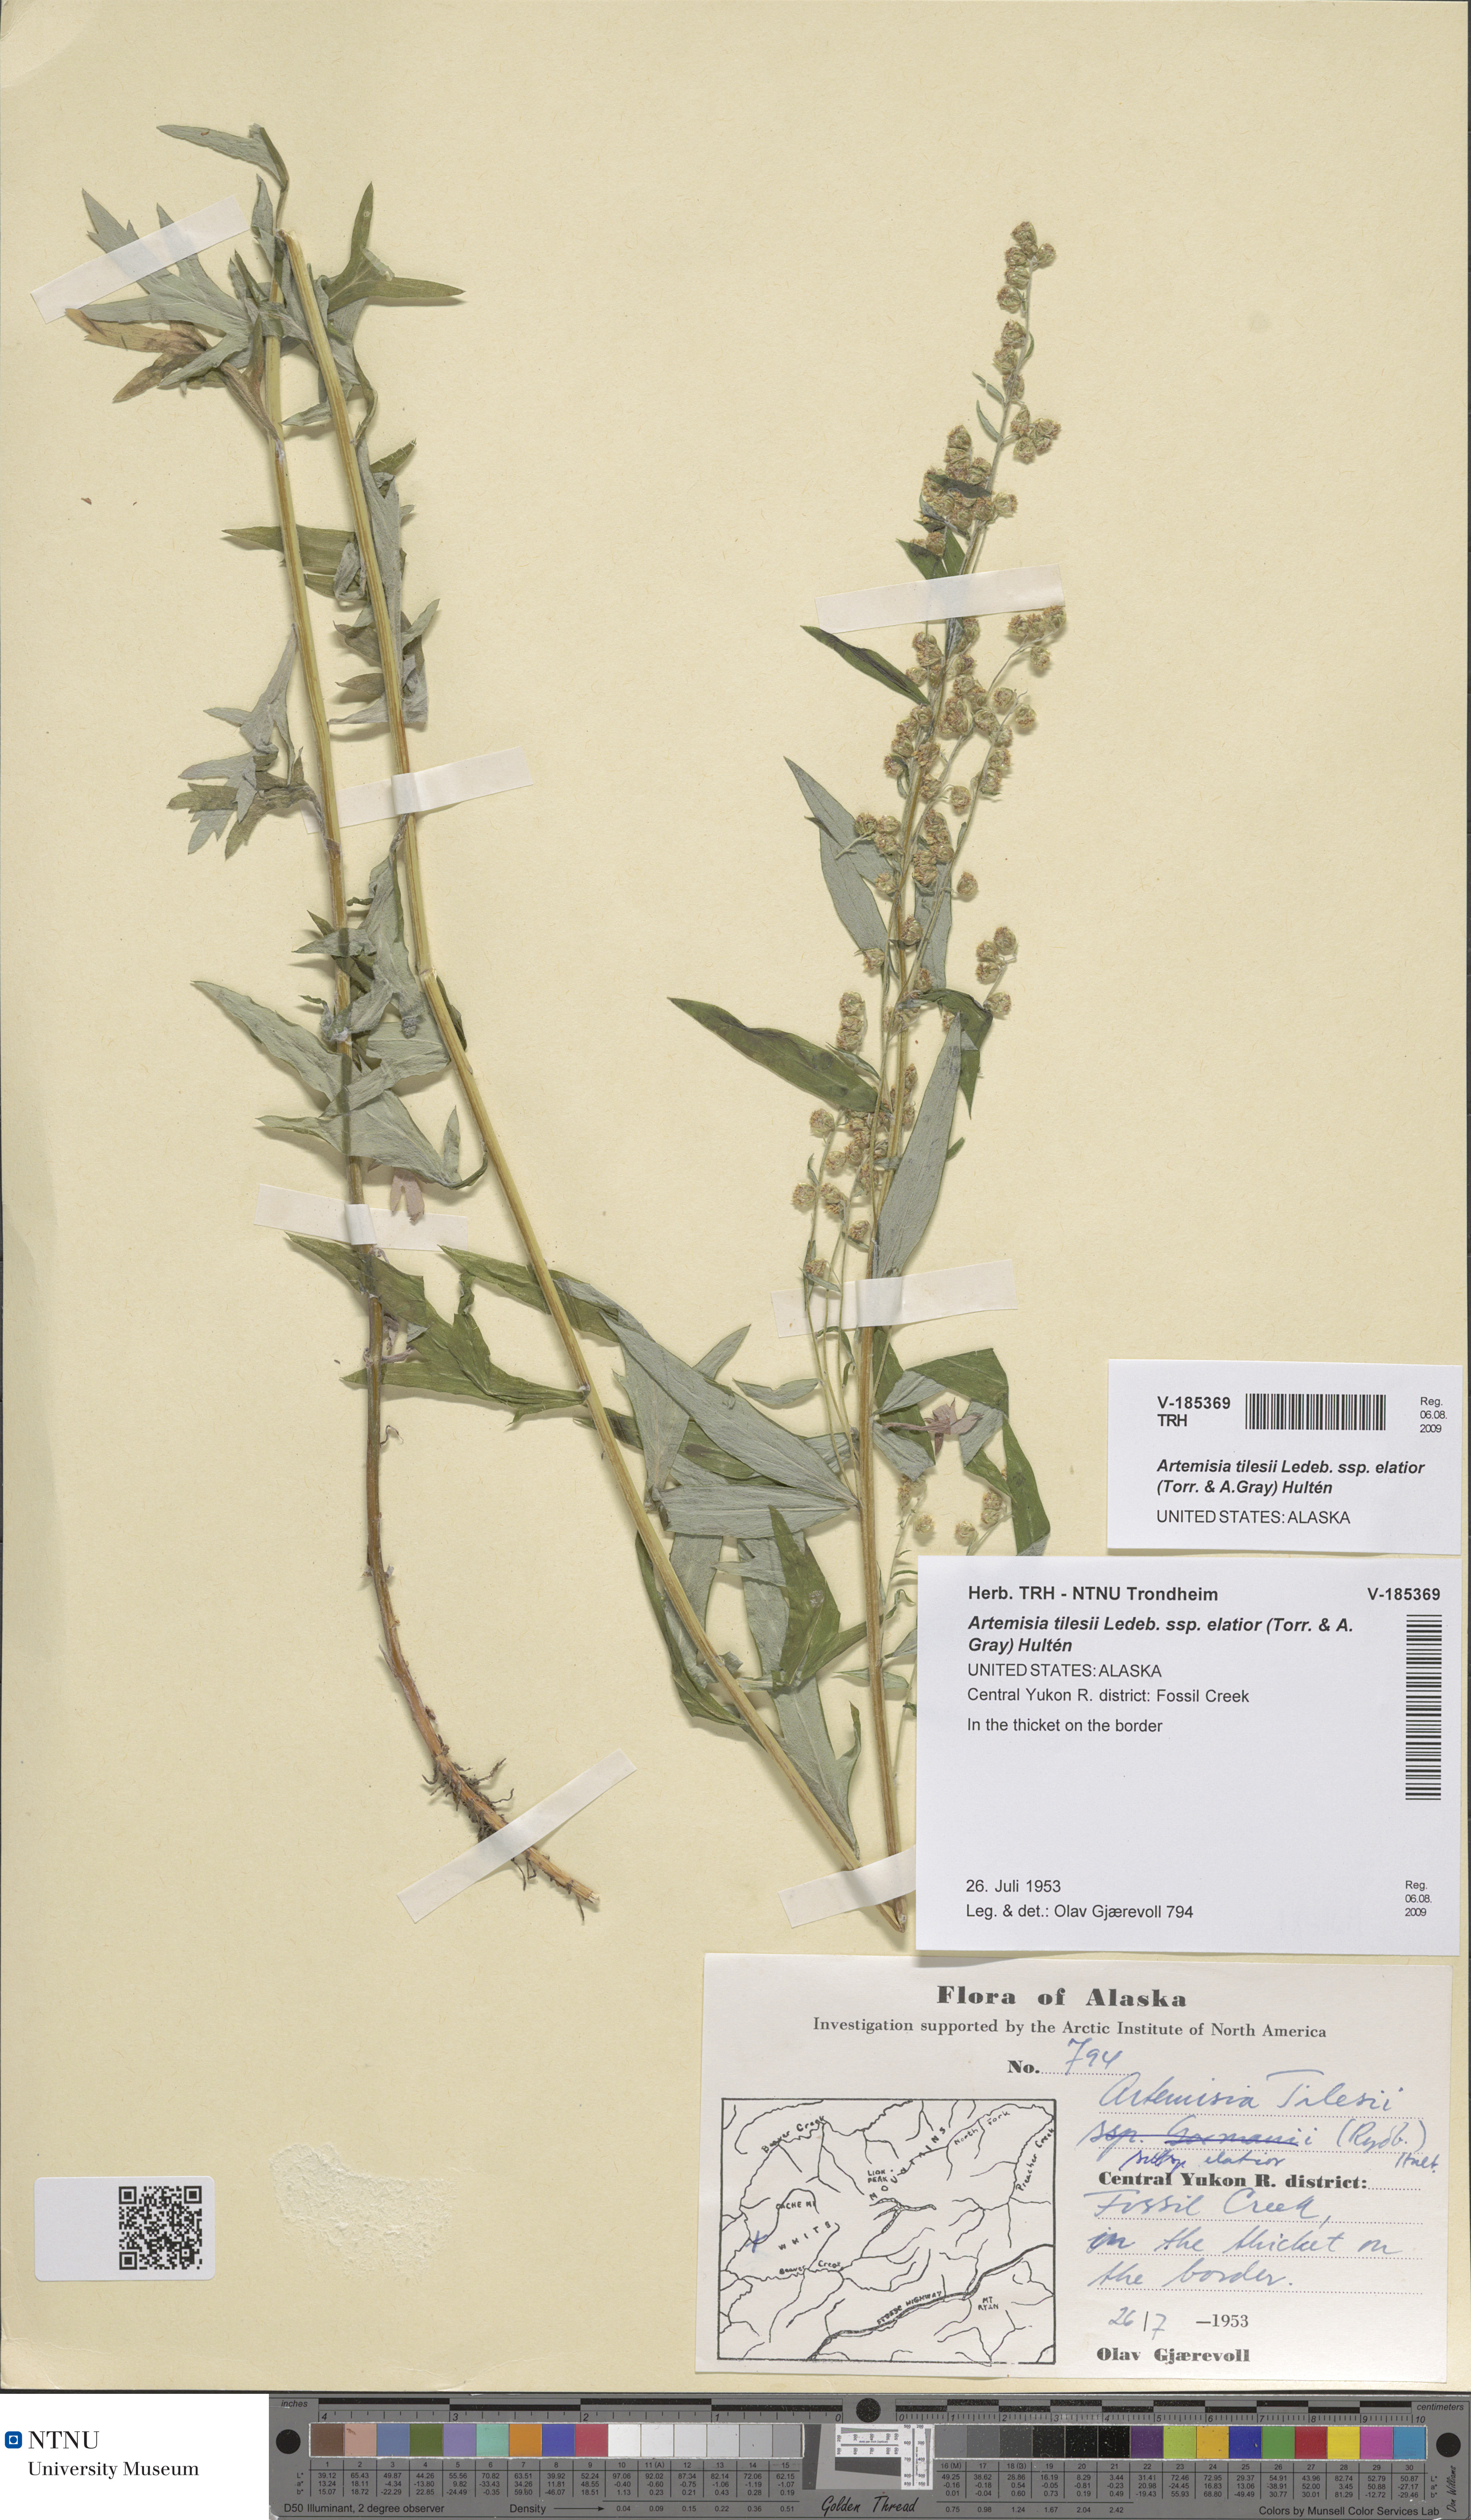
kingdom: Plantae
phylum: Tracheophyta
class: Magnoliopsida
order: Asterales
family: Asteraceae
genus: Artemisia
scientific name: Artemisia tilesii
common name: Aleutian mugwort
